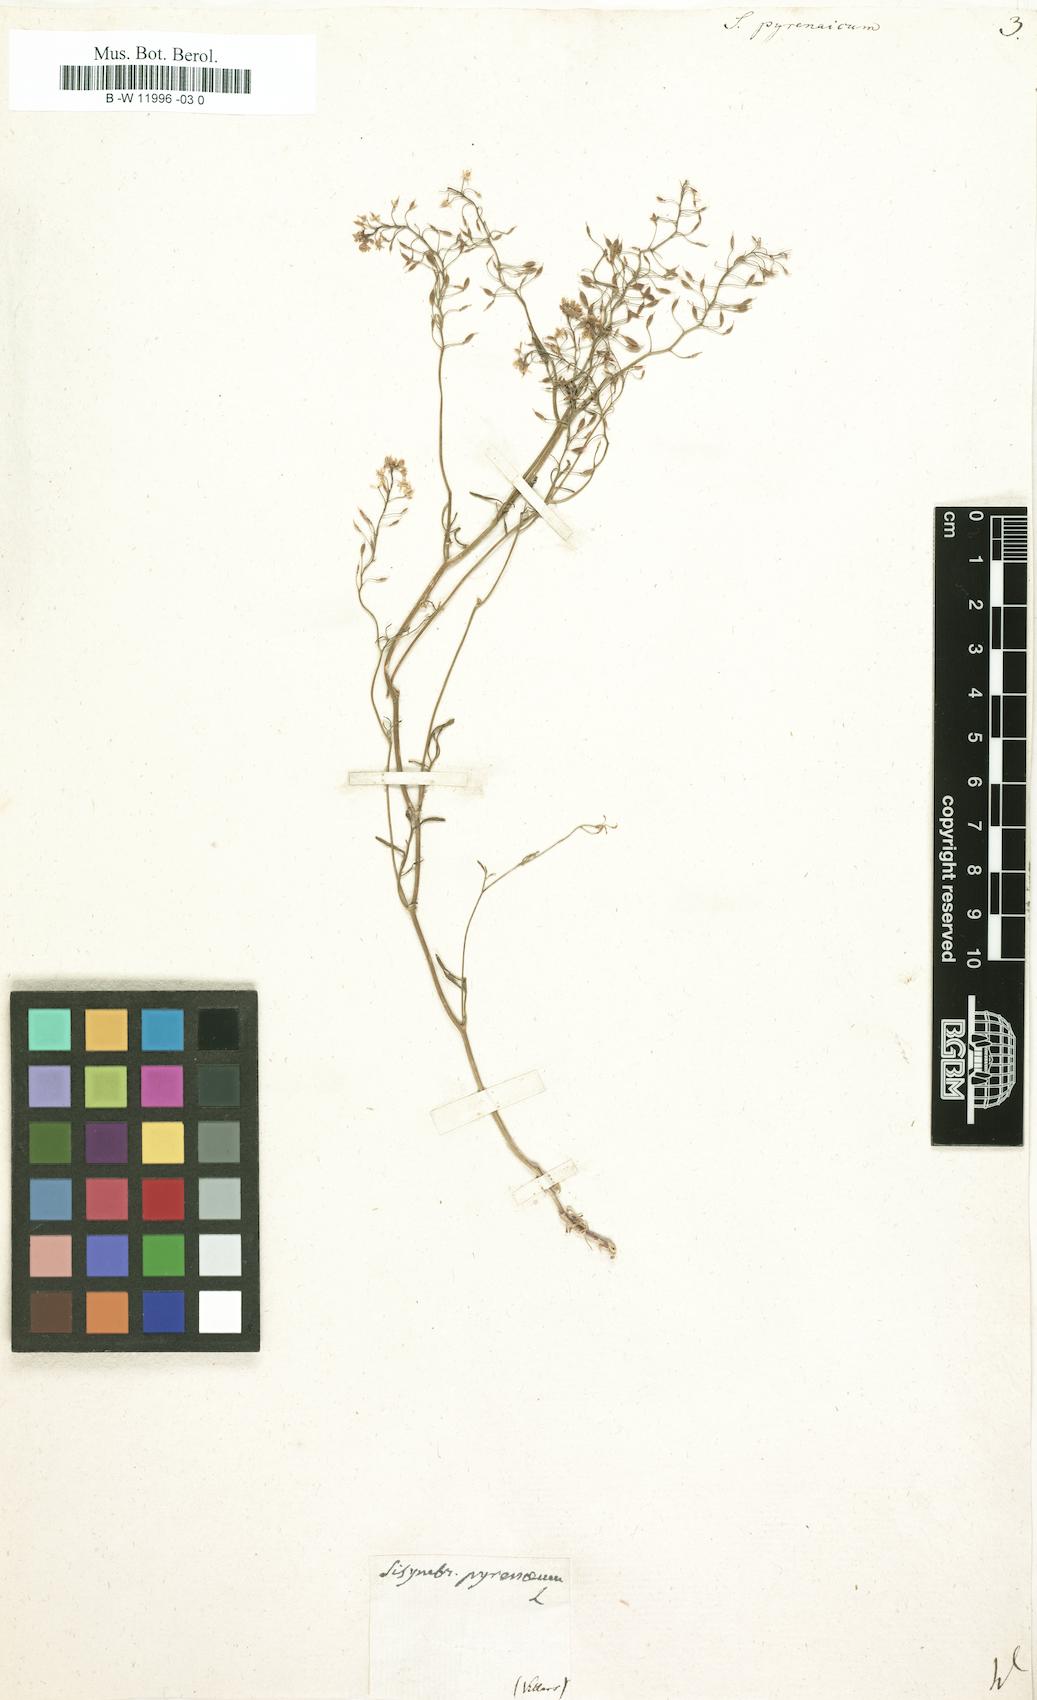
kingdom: Plantae
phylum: Tracheophyta
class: Magnoliopsida
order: Brassicales
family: Brassicaceae
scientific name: Brassicaceae
